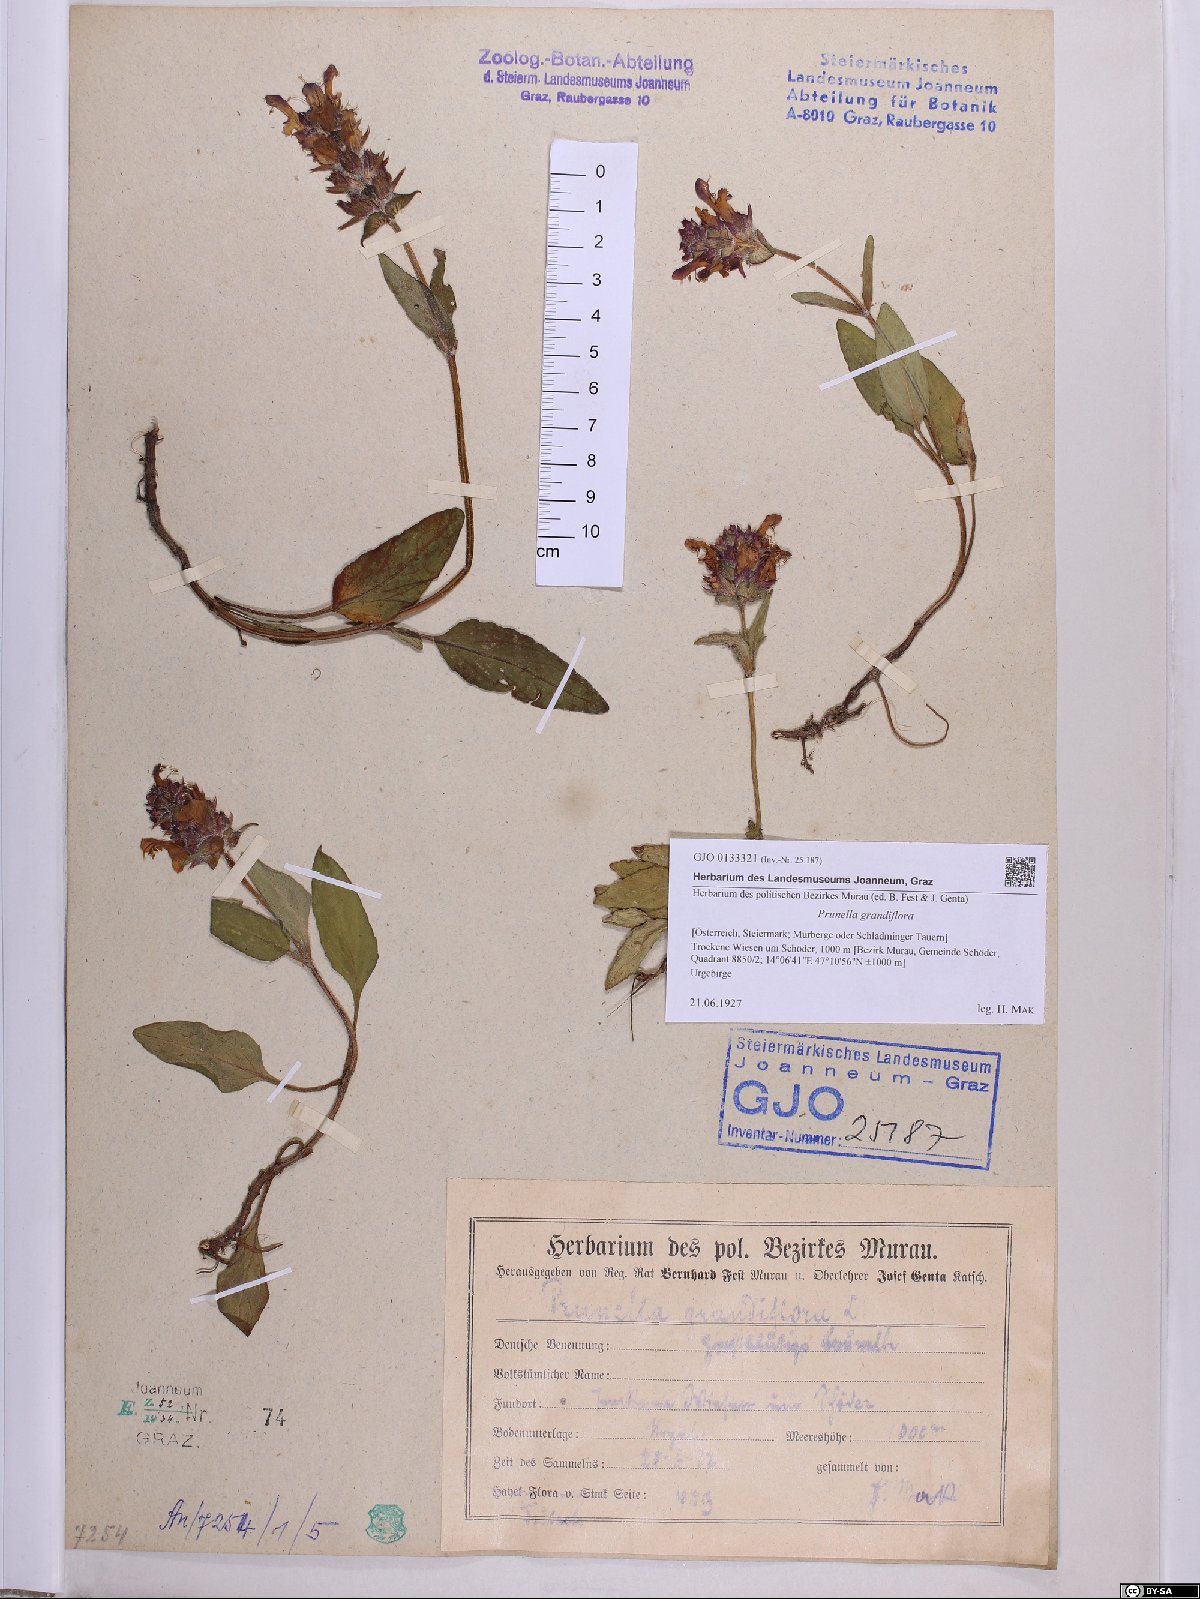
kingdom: Plantae
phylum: Tracheophyta
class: Magnoliopsida
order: Lamiales
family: Lamiaceae
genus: Prunella
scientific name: Prunella grandiflora
